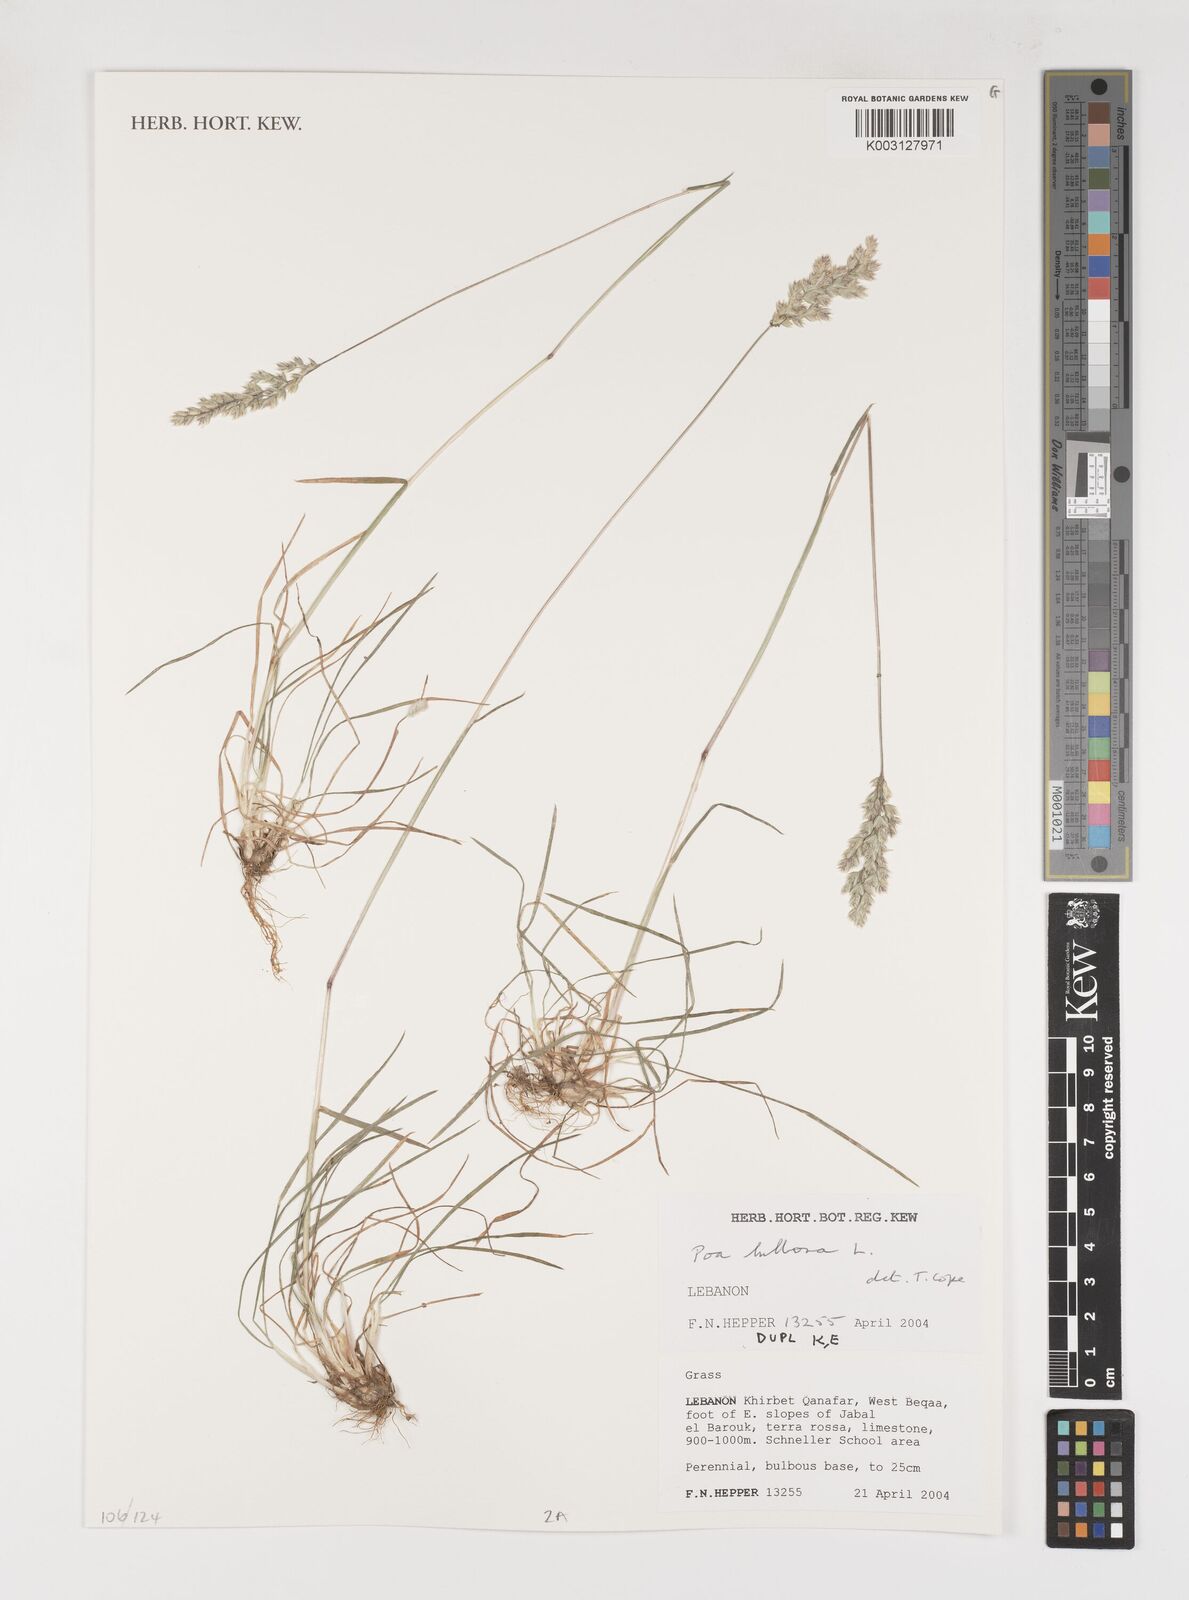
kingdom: Plantae
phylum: Tracheophyta
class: Liliopsida
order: Poales
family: Poaceae
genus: Poa
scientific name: Poa
